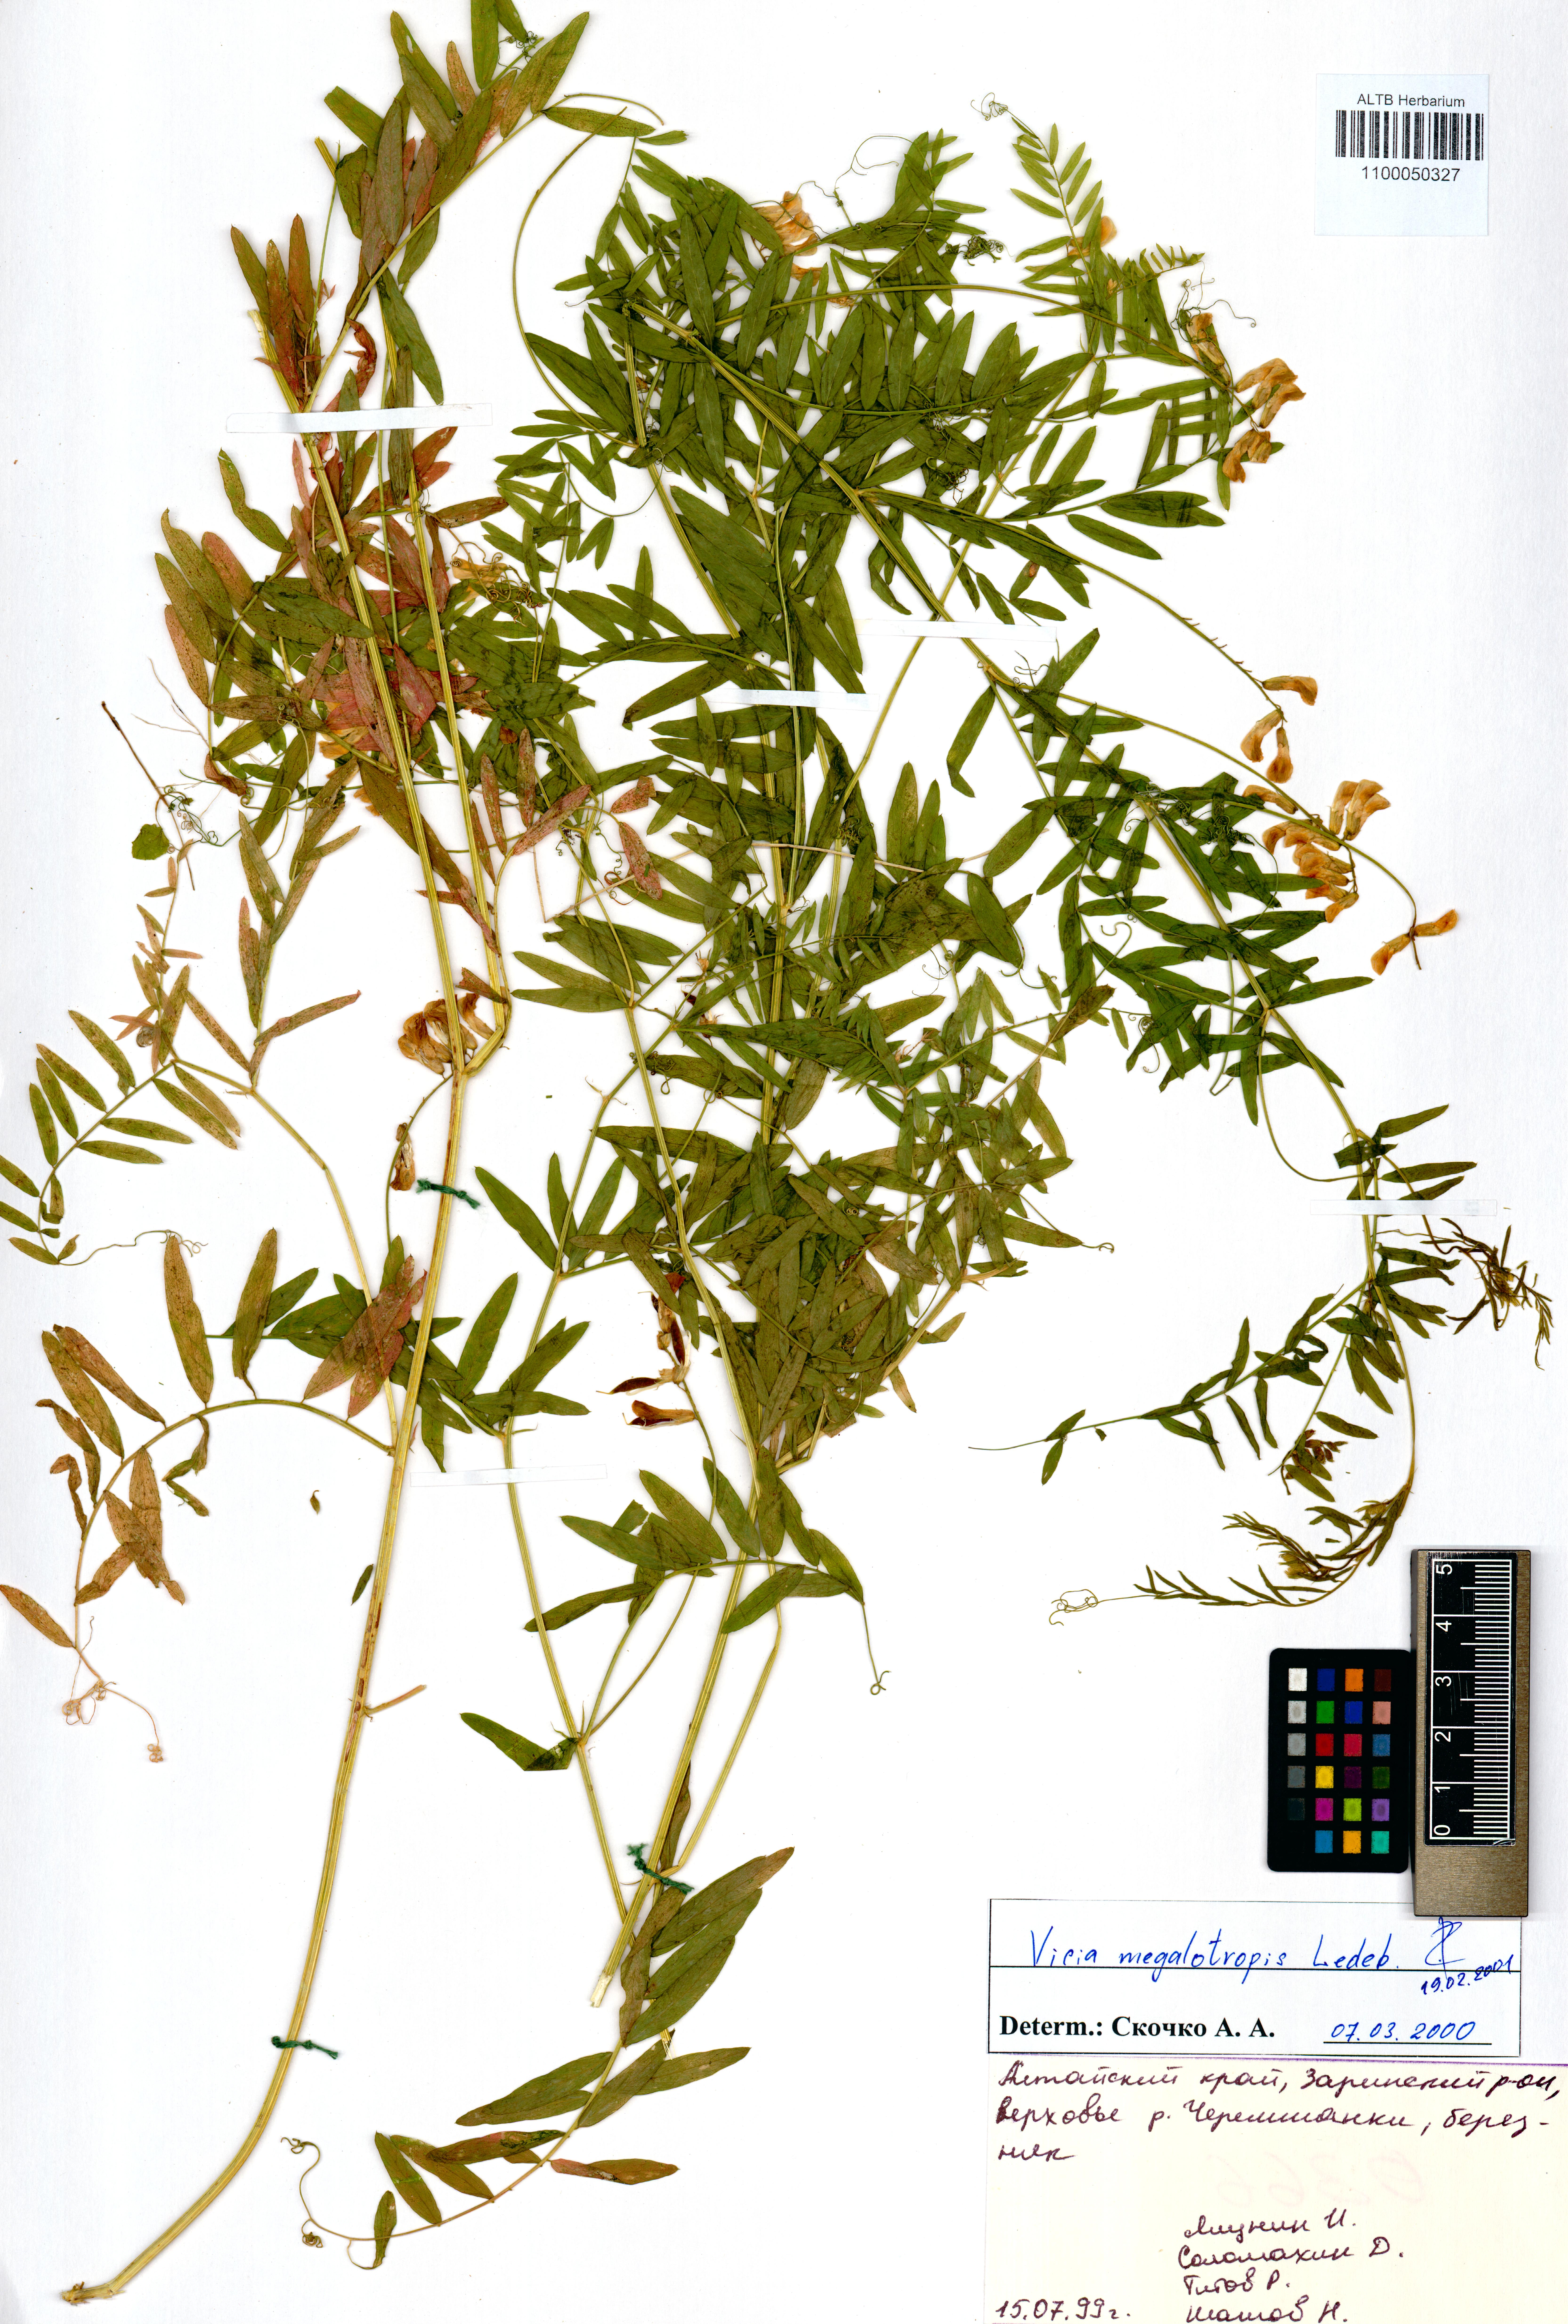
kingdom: Plantae
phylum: Tracheophyta
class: Magnoliopsida
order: Fabales
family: Fabaceae
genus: Vicia
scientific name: Vicia megalotropis
